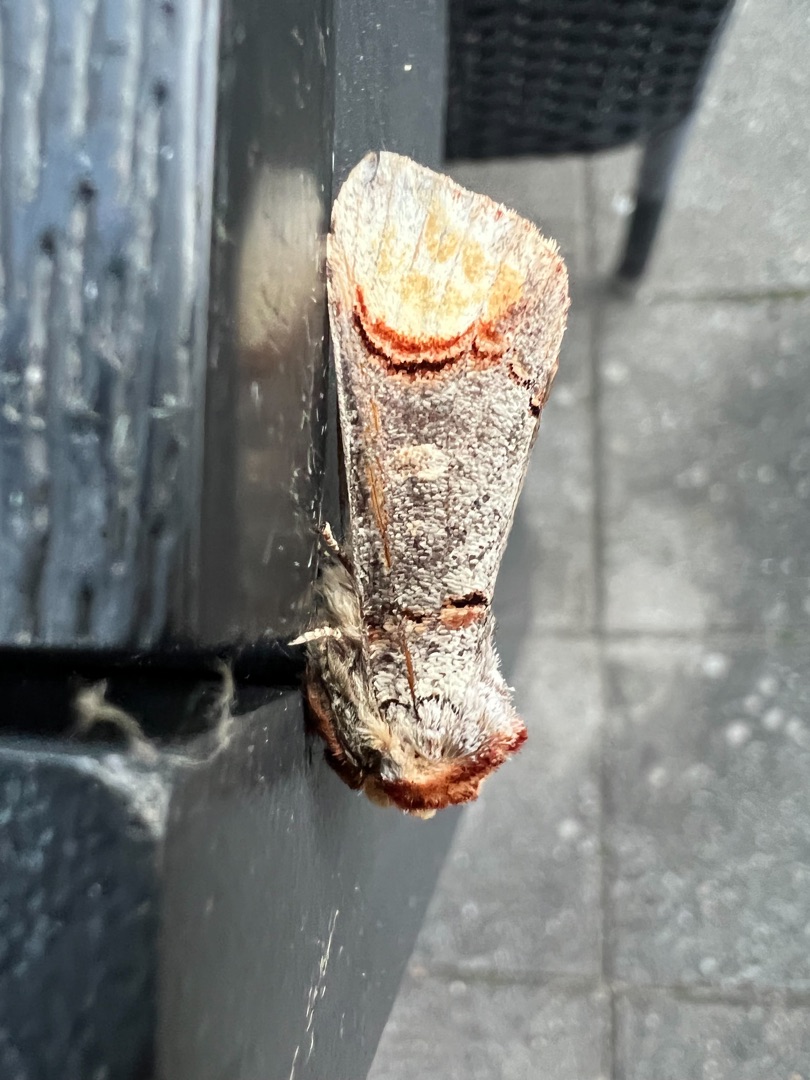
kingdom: Animalia
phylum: Arthropoda
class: Insecta
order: Lepidoptera
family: Notodontidae
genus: Phalera
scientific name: Phalera bucephala
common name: Måneplet
